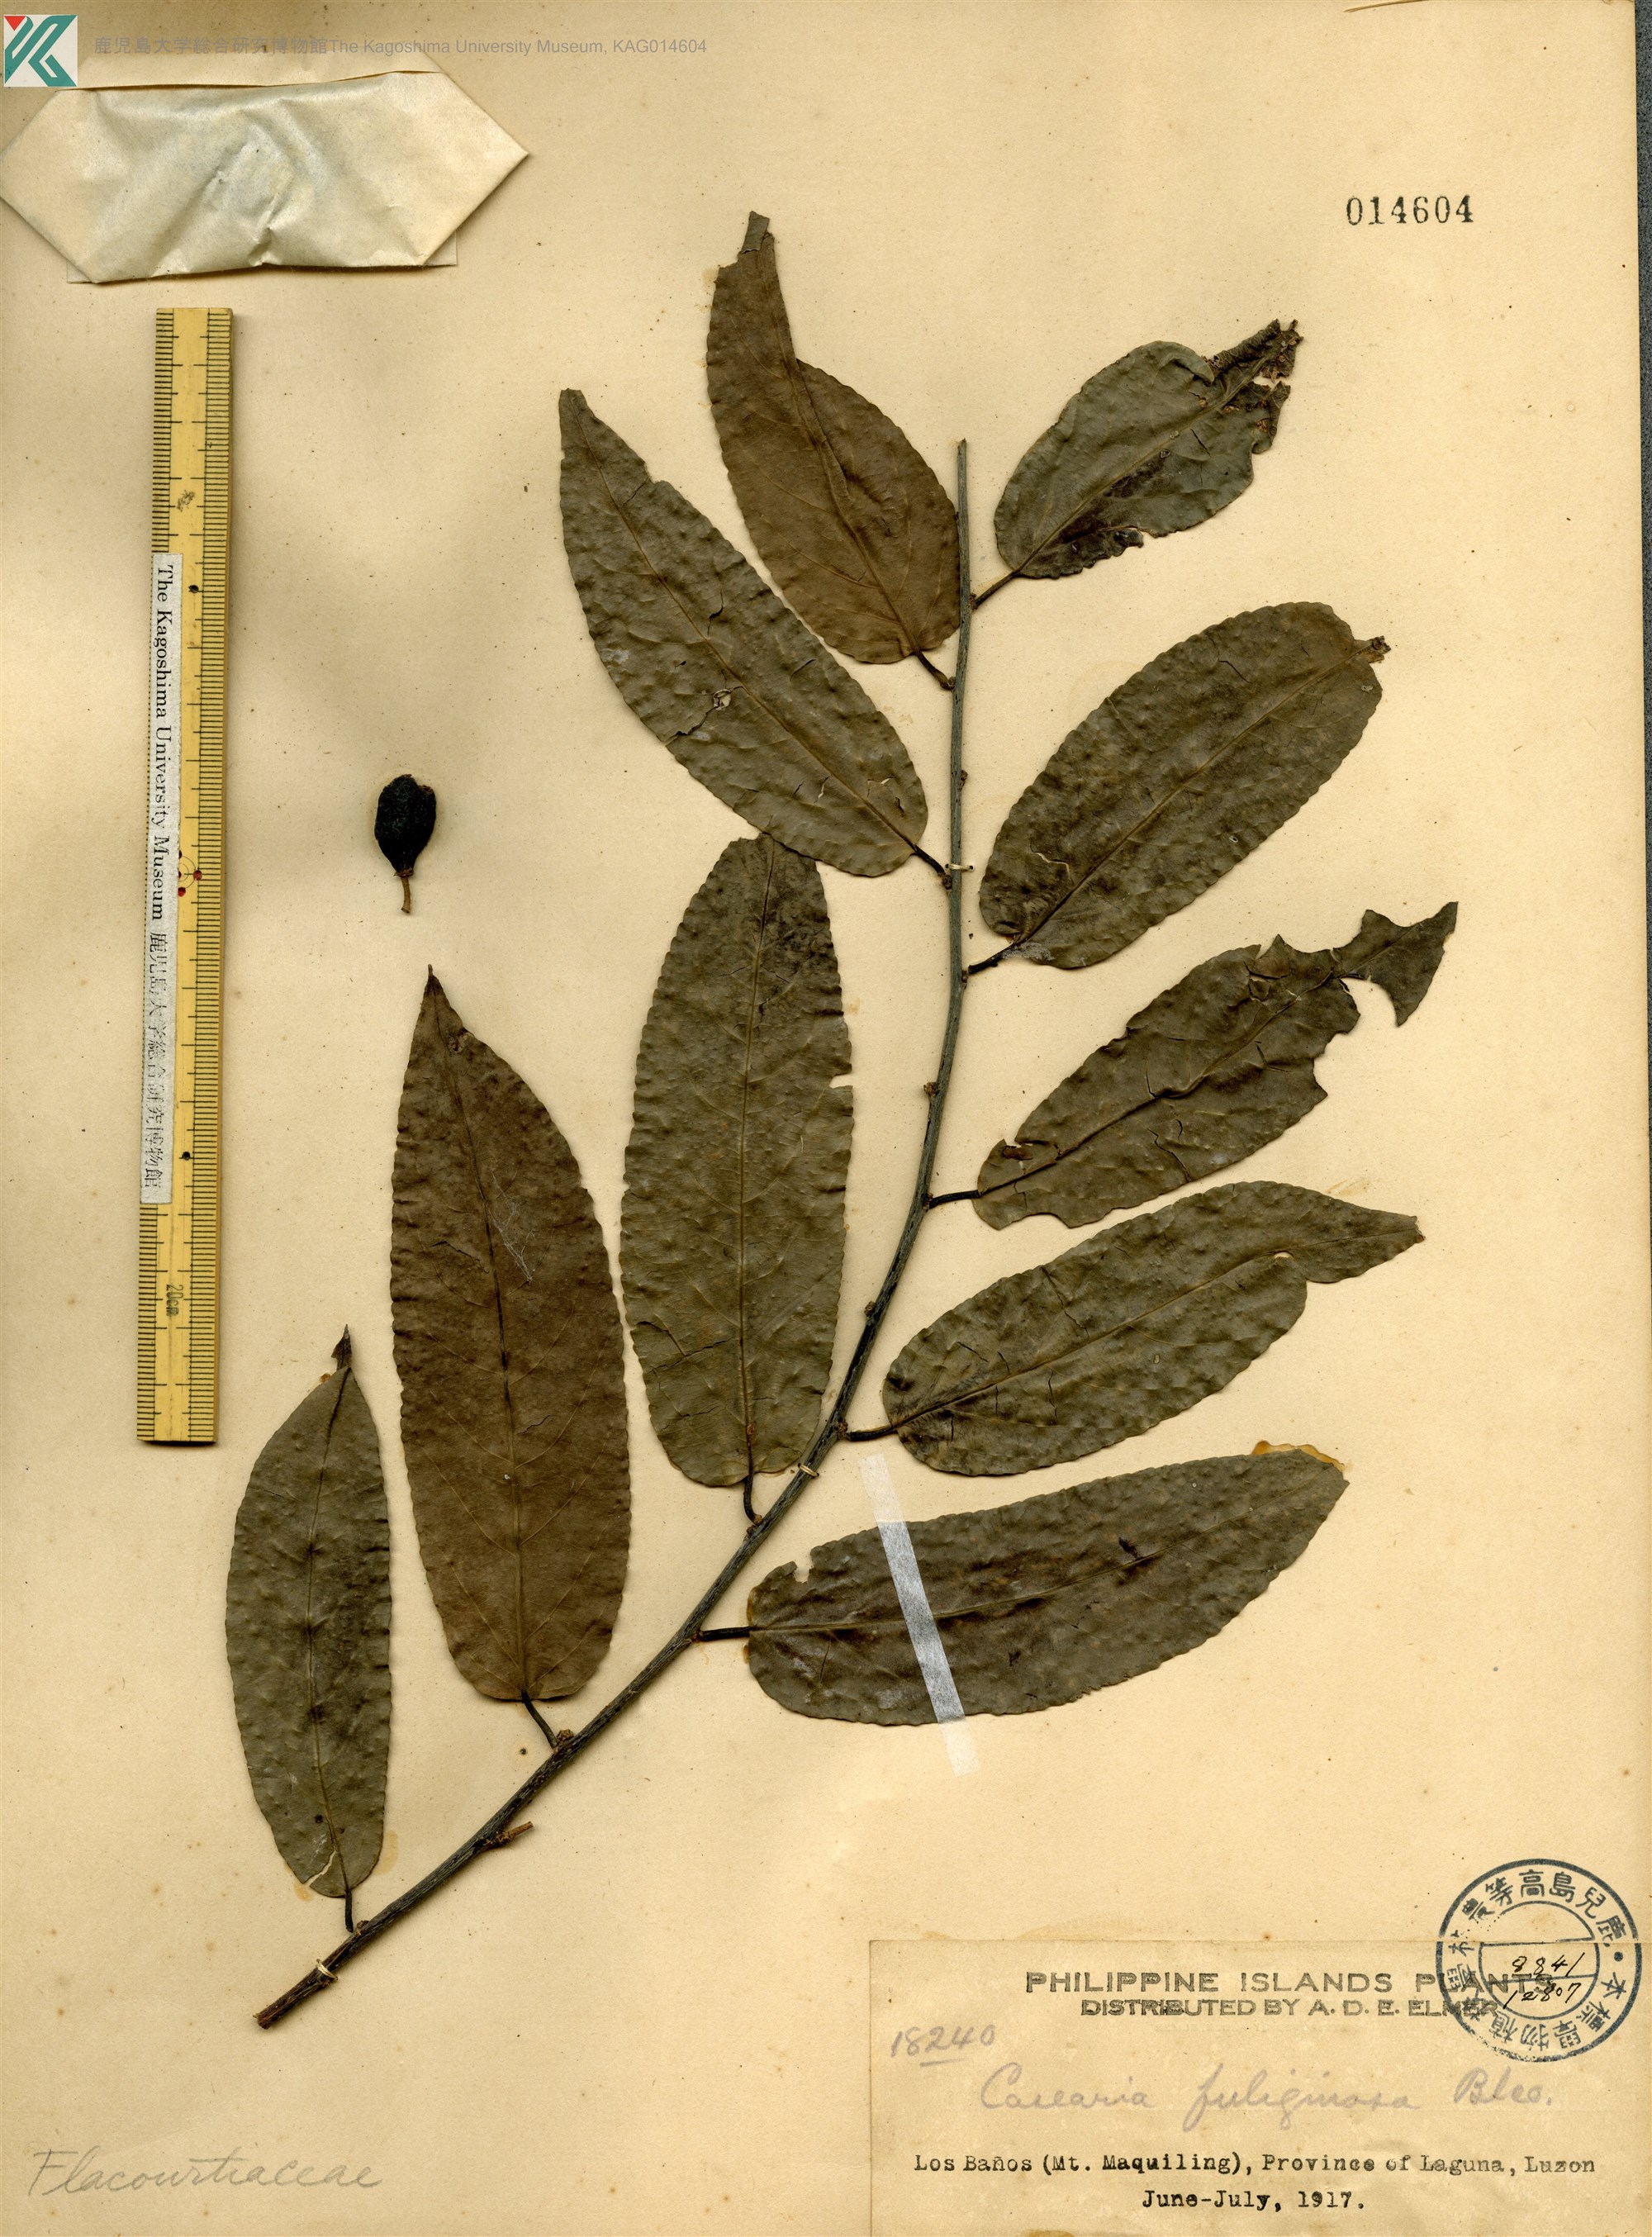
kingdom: Plantae
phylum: Tracheophyta
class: Magnoliopsida
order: Malpighiales
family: Salicaceae
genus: Casearia
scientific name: Casearia fuliginosa
